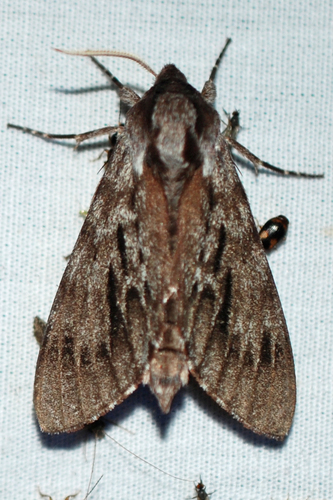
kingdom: Animalia
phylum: Arthropoda
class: Insecta
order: Lepidoptera
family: Sphingidae
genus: Lapara
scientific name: Lapara bombycoides
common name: Northern pine sphinx
